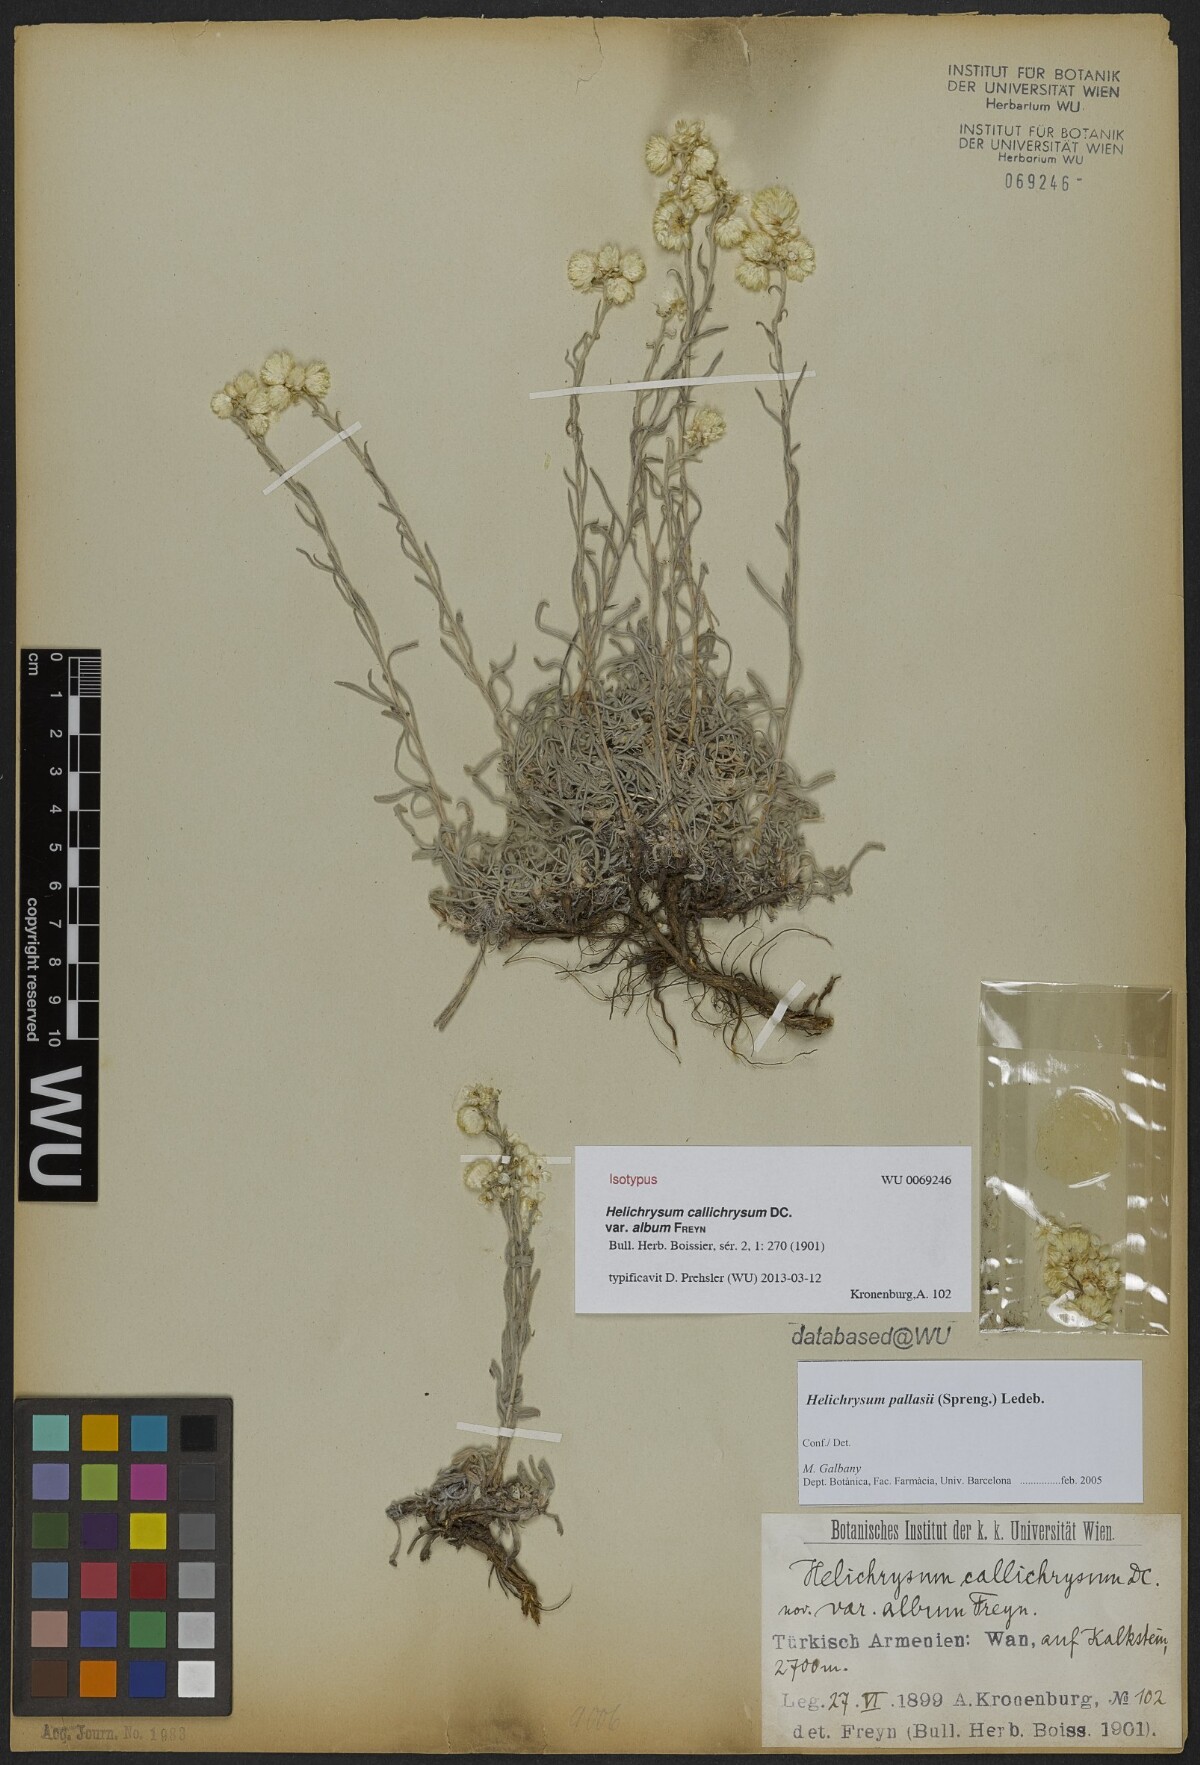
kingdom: Plantae
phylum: Tracheophyta
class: Magnoliopsida
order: Asterales
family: Asteraceae
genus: Helichrysum
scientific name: Helichrysum pallasii
